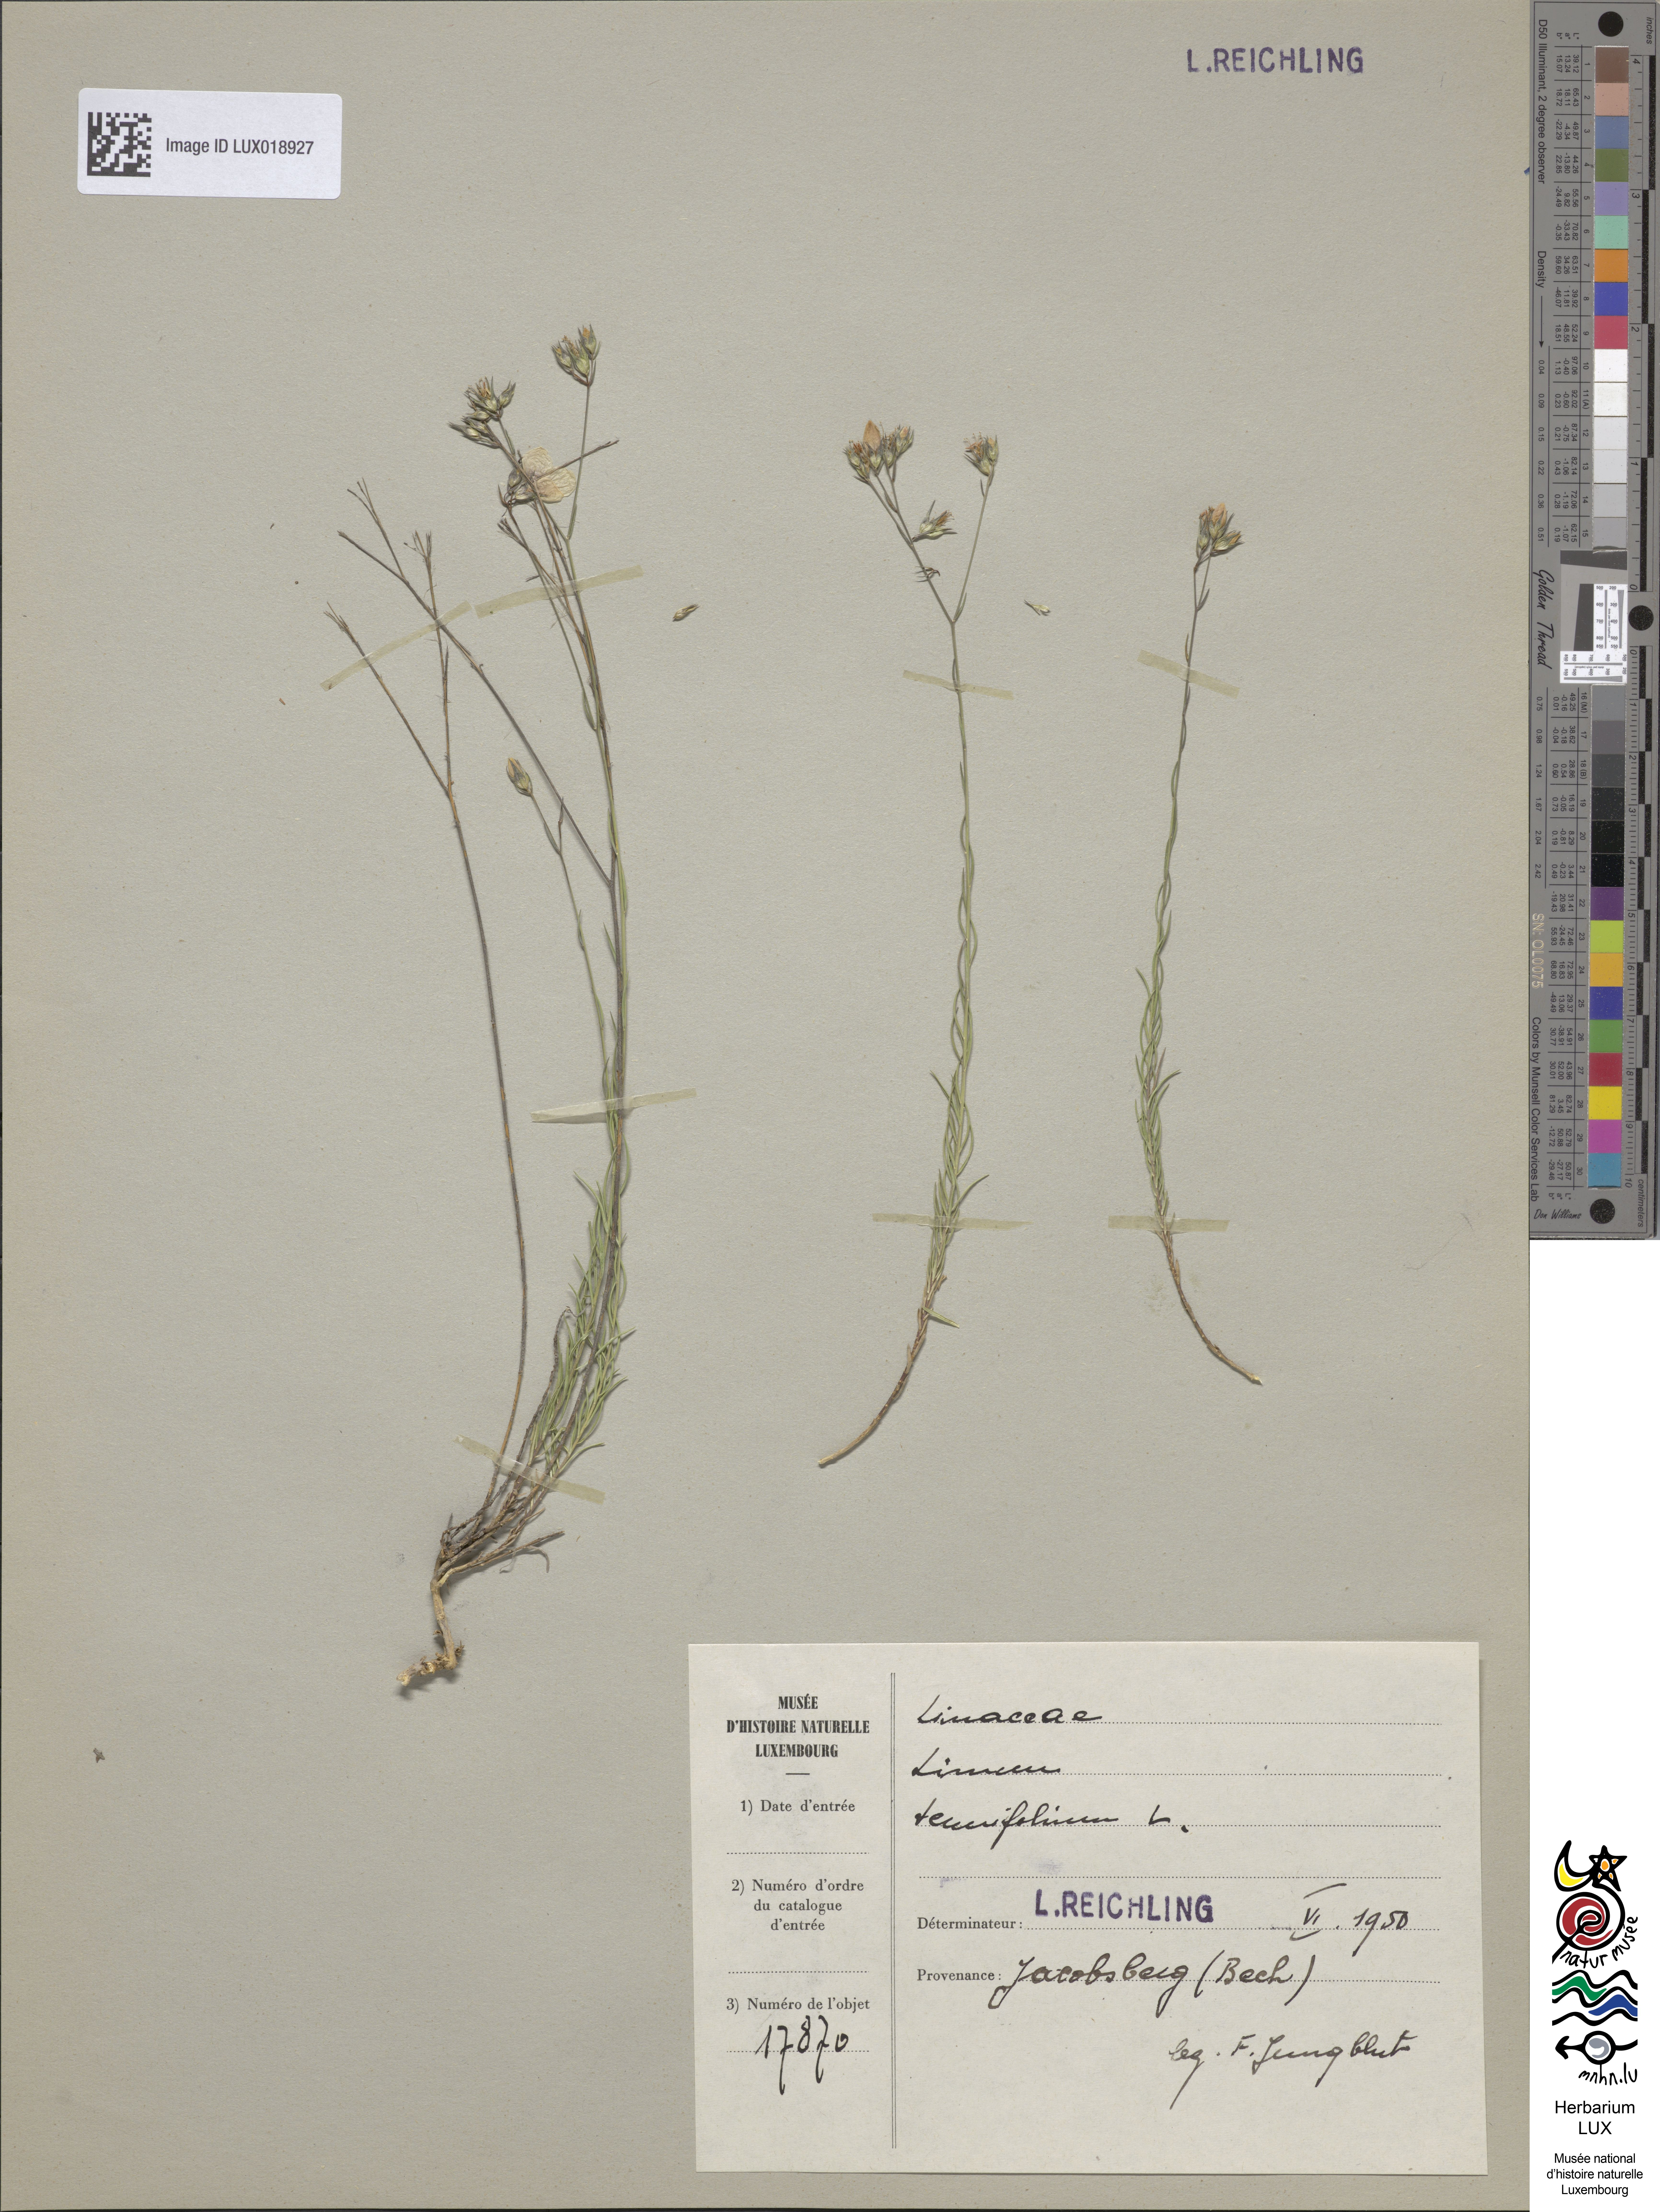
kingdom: Plantae
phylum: Tracheophyta
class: Magnoliopsida
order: Malpighiales
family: Linaceae
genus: Linum
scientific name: Linum tenuifolium
